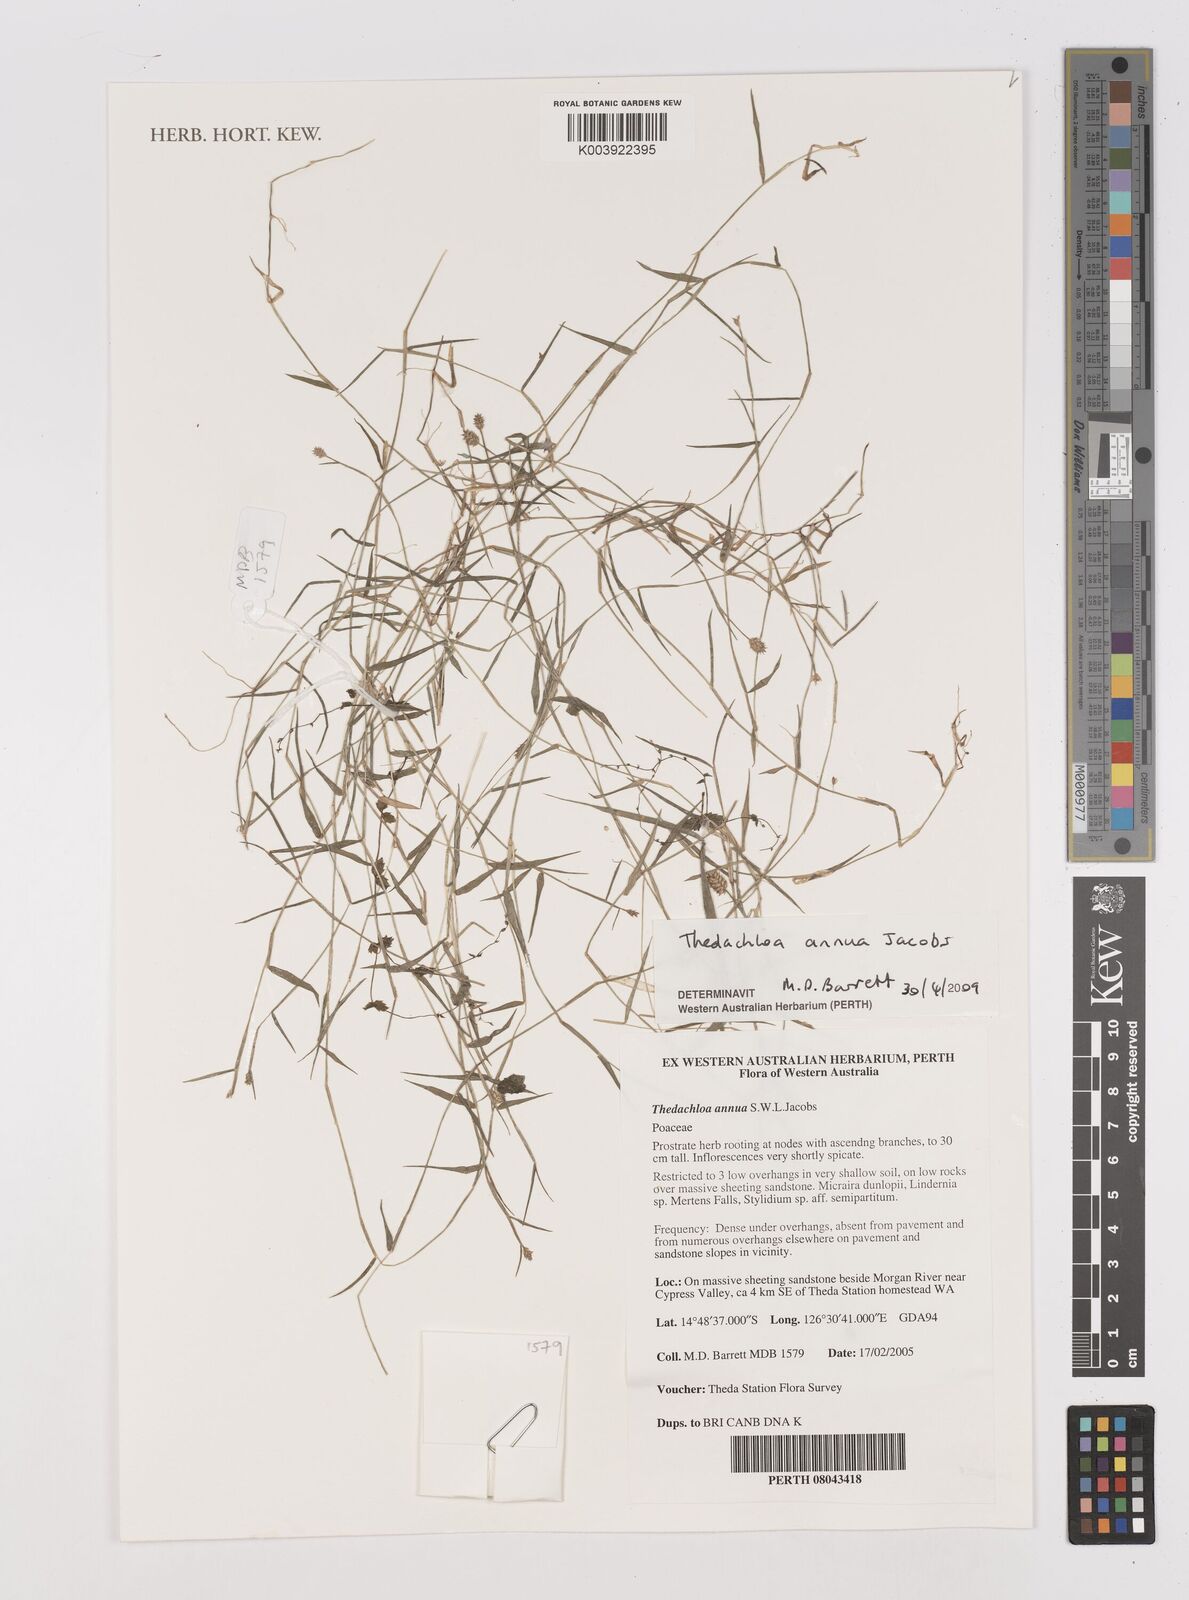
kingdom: Plantae
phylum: Tracheophyta
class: Liliopsida
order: Poales
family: Poaceae
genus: Thedachloa
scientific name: Thedachloa annua
